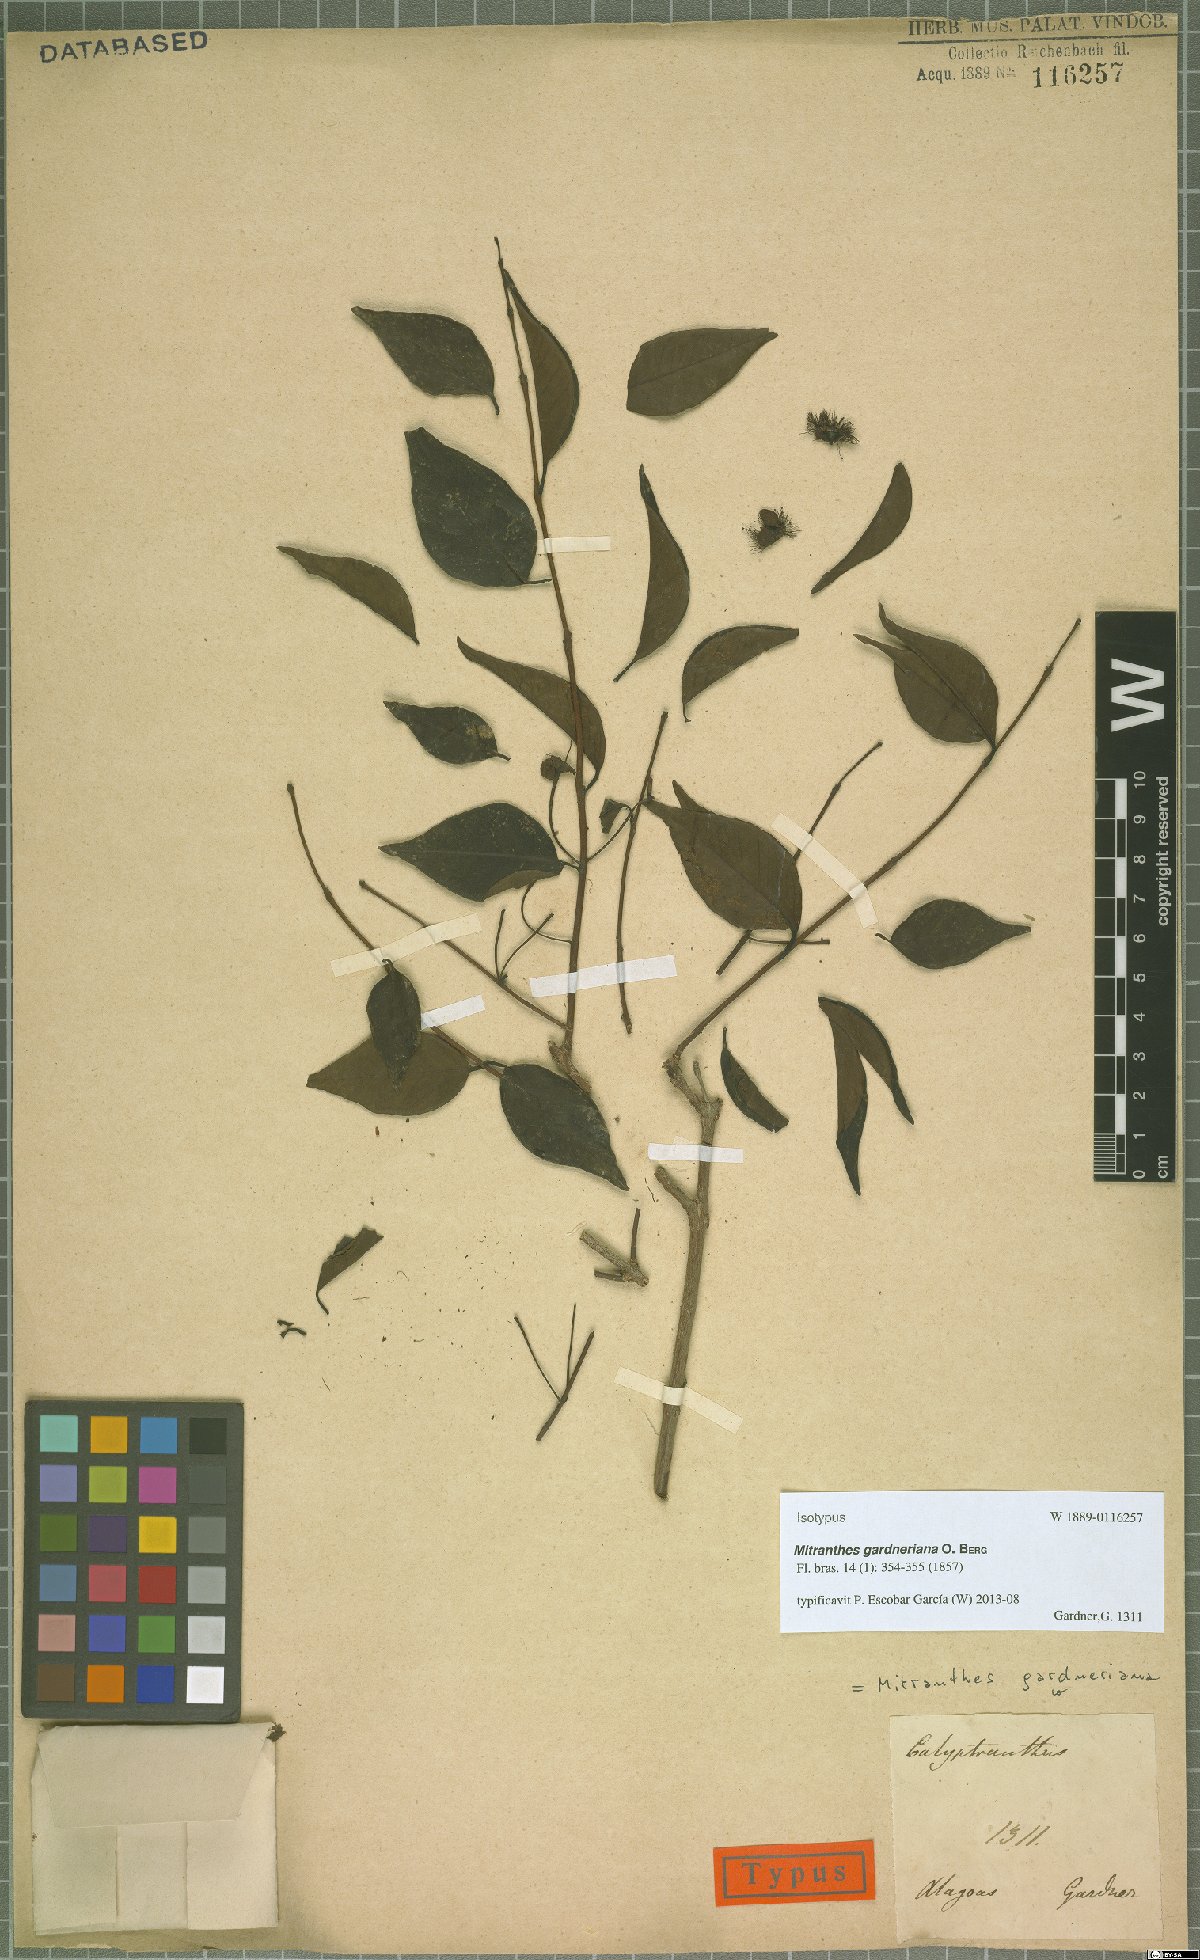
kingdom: Plantae
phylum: Tracheophyta
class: Magnoliopsida
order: Myrtales
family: Myrtaceae
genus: Psidium
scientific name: Psidium oligospermum
